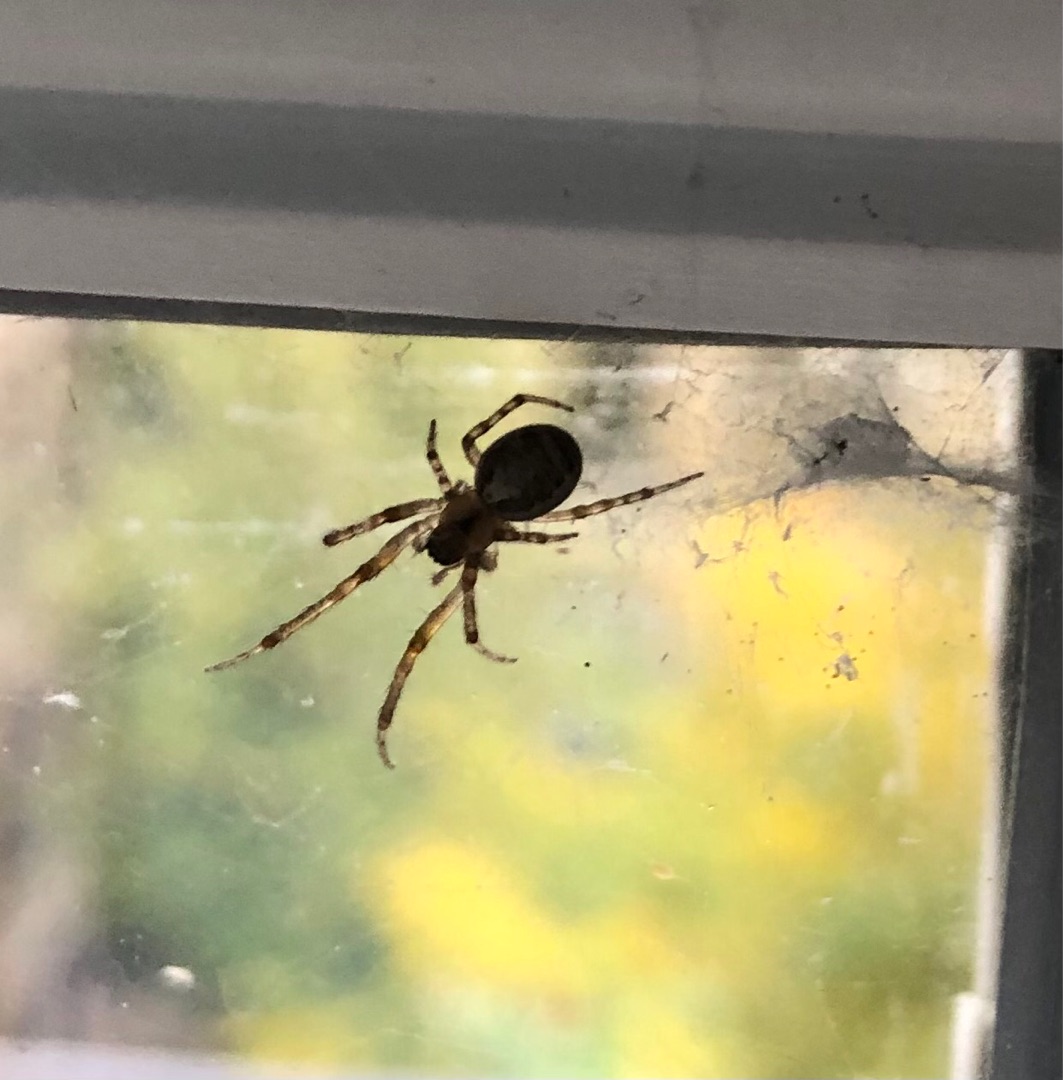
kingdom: Animalia
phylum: Arthropoda
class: Arachnida
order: Araneae
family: Araneidae
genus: Zygiella
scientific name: Zygiella x-notata
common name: Grå sektoredderkop
